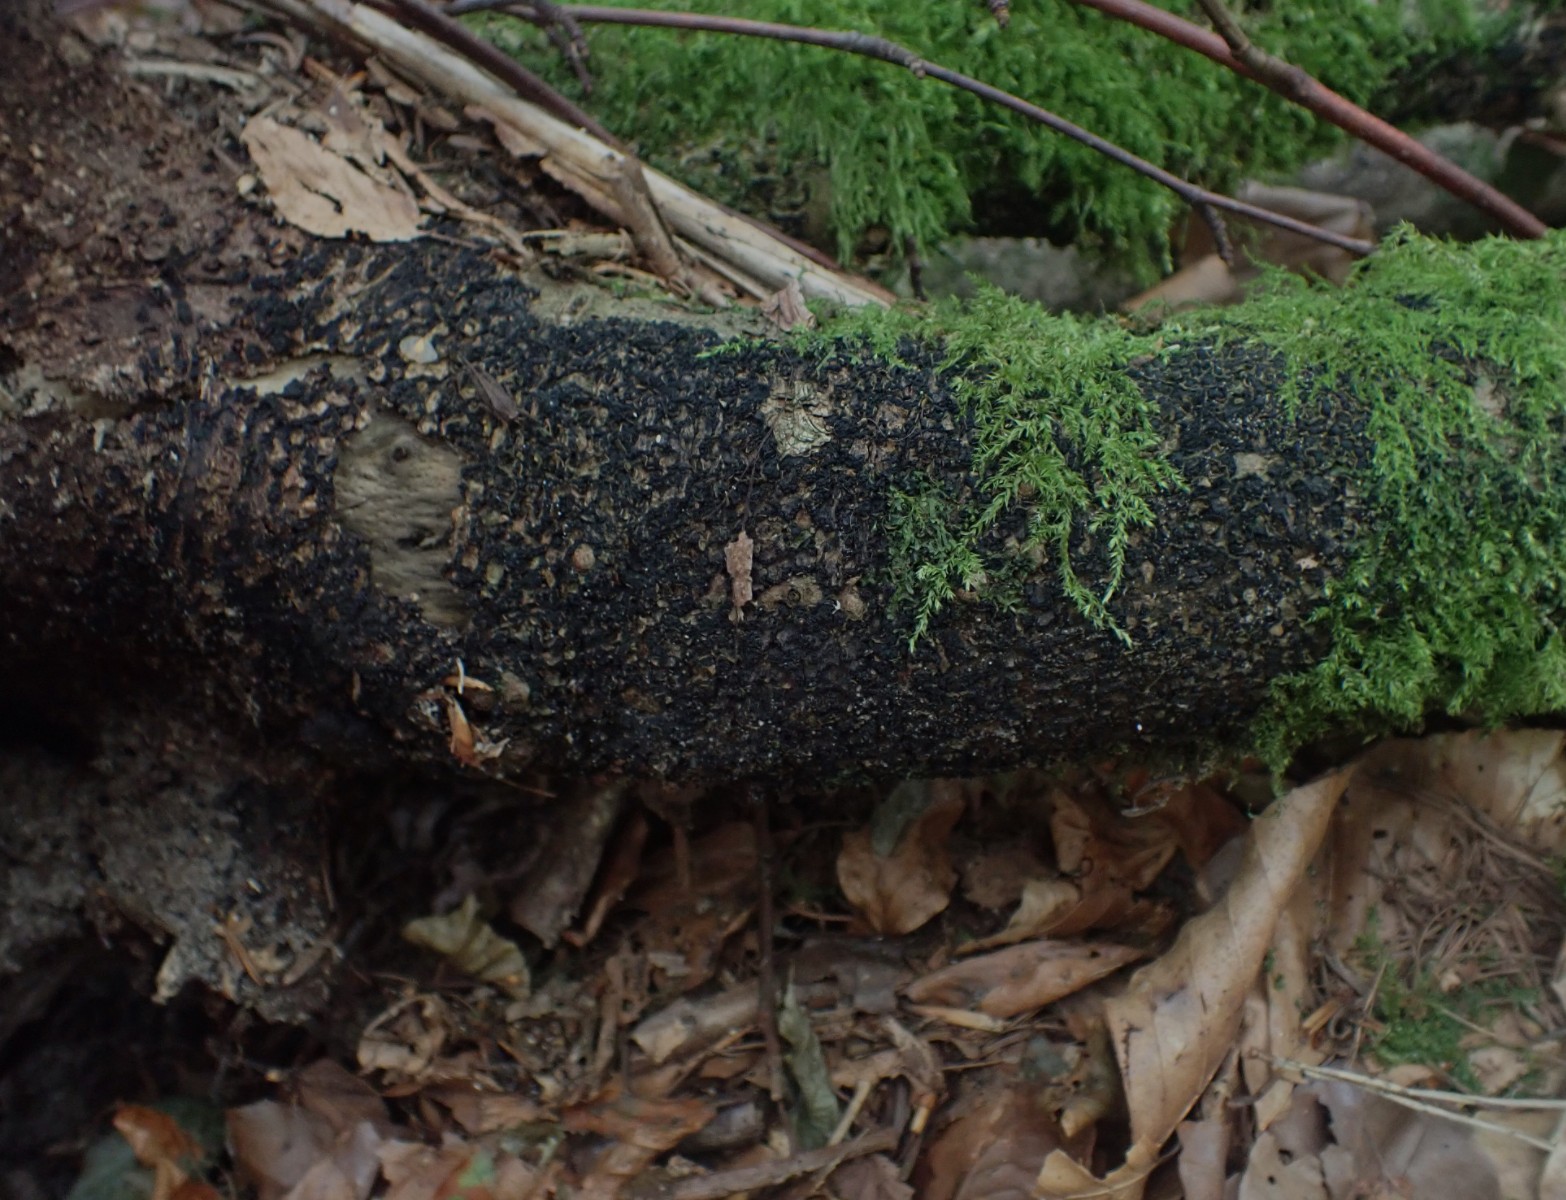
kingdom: Fungi
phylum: Ascomycota
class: Sordariomycetes
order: Xylariales
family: Melogrammataceae
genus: Melogramma
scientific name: Melogramma spiniferum
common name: bøgefod-kulhals
